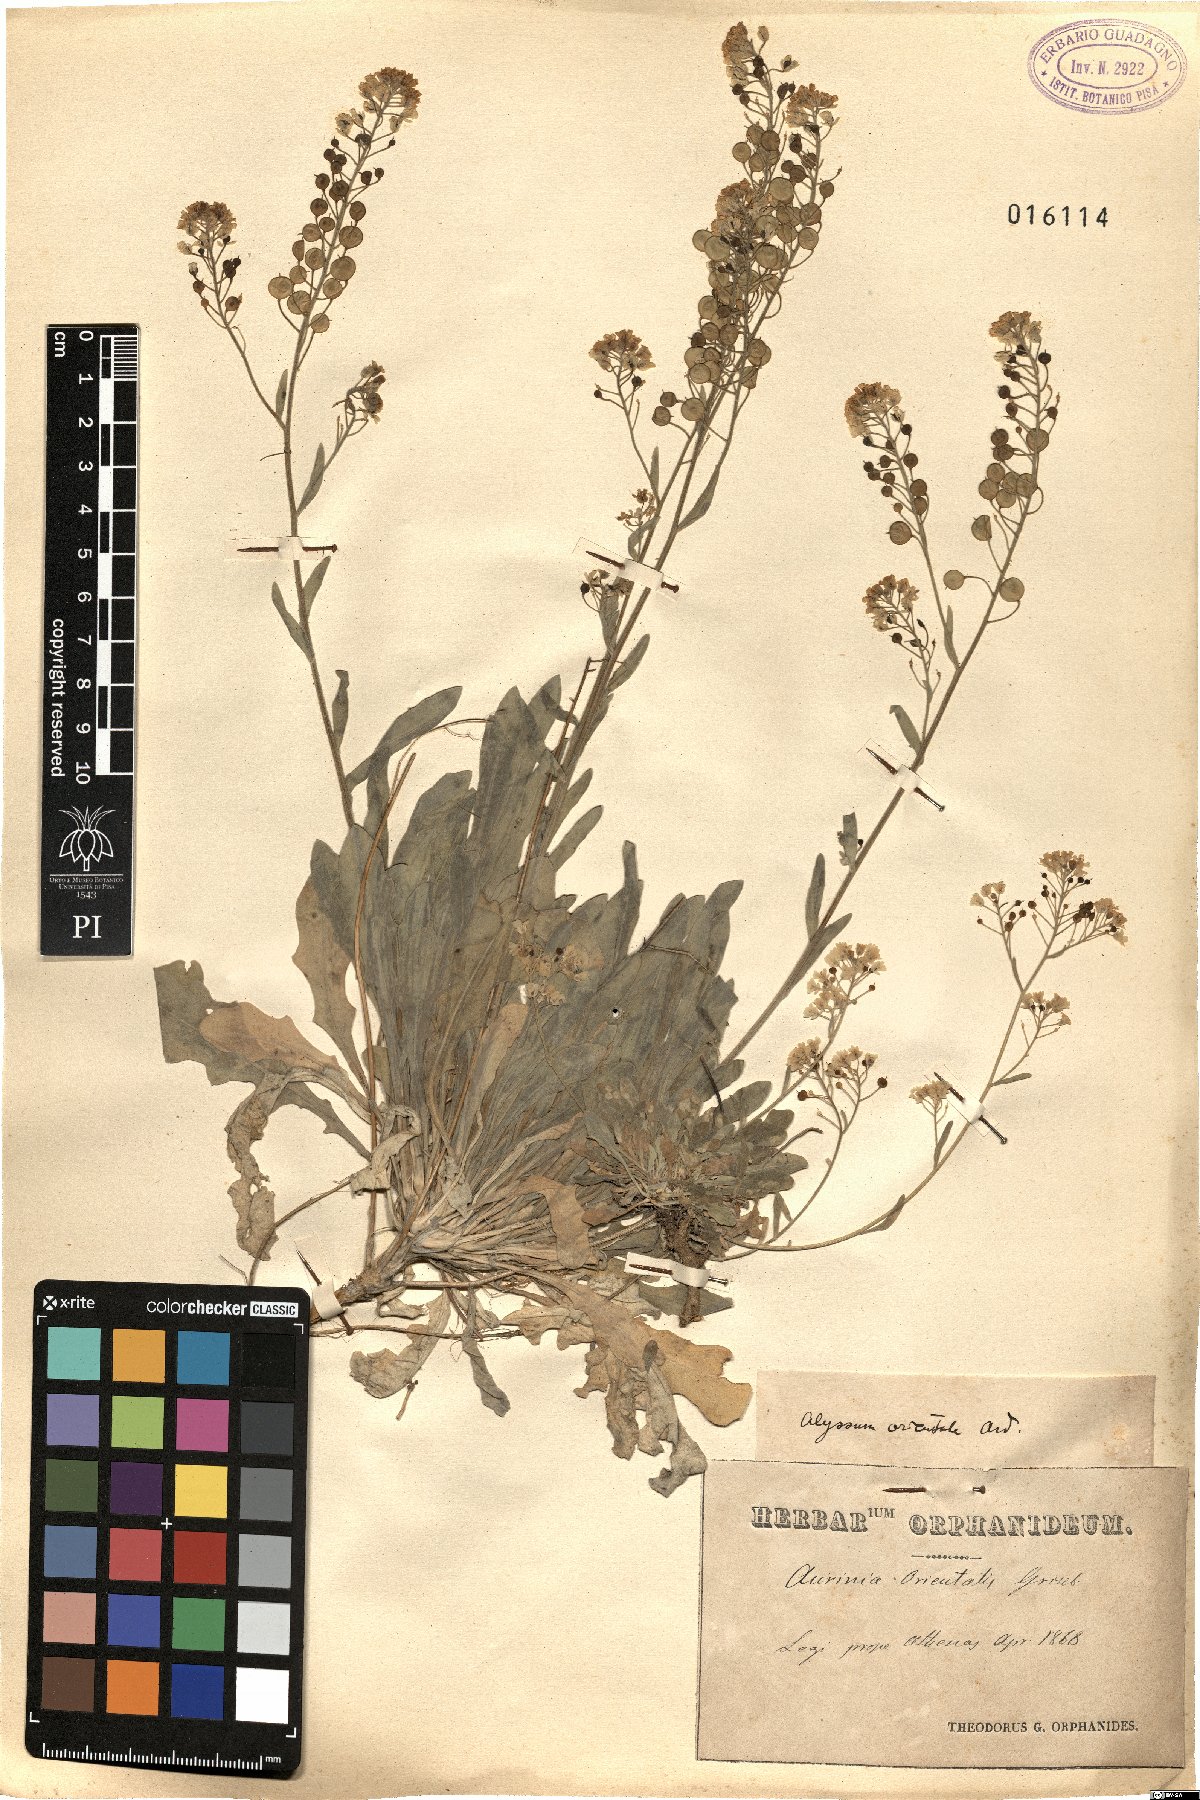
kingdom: Plantae
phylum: Tracheophyta
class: Magnoliopsida
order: Brassicales
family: Brassicaceae
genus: Aurinia
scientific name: Aurinia saxatilis
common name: Golden-tuft alyssum
